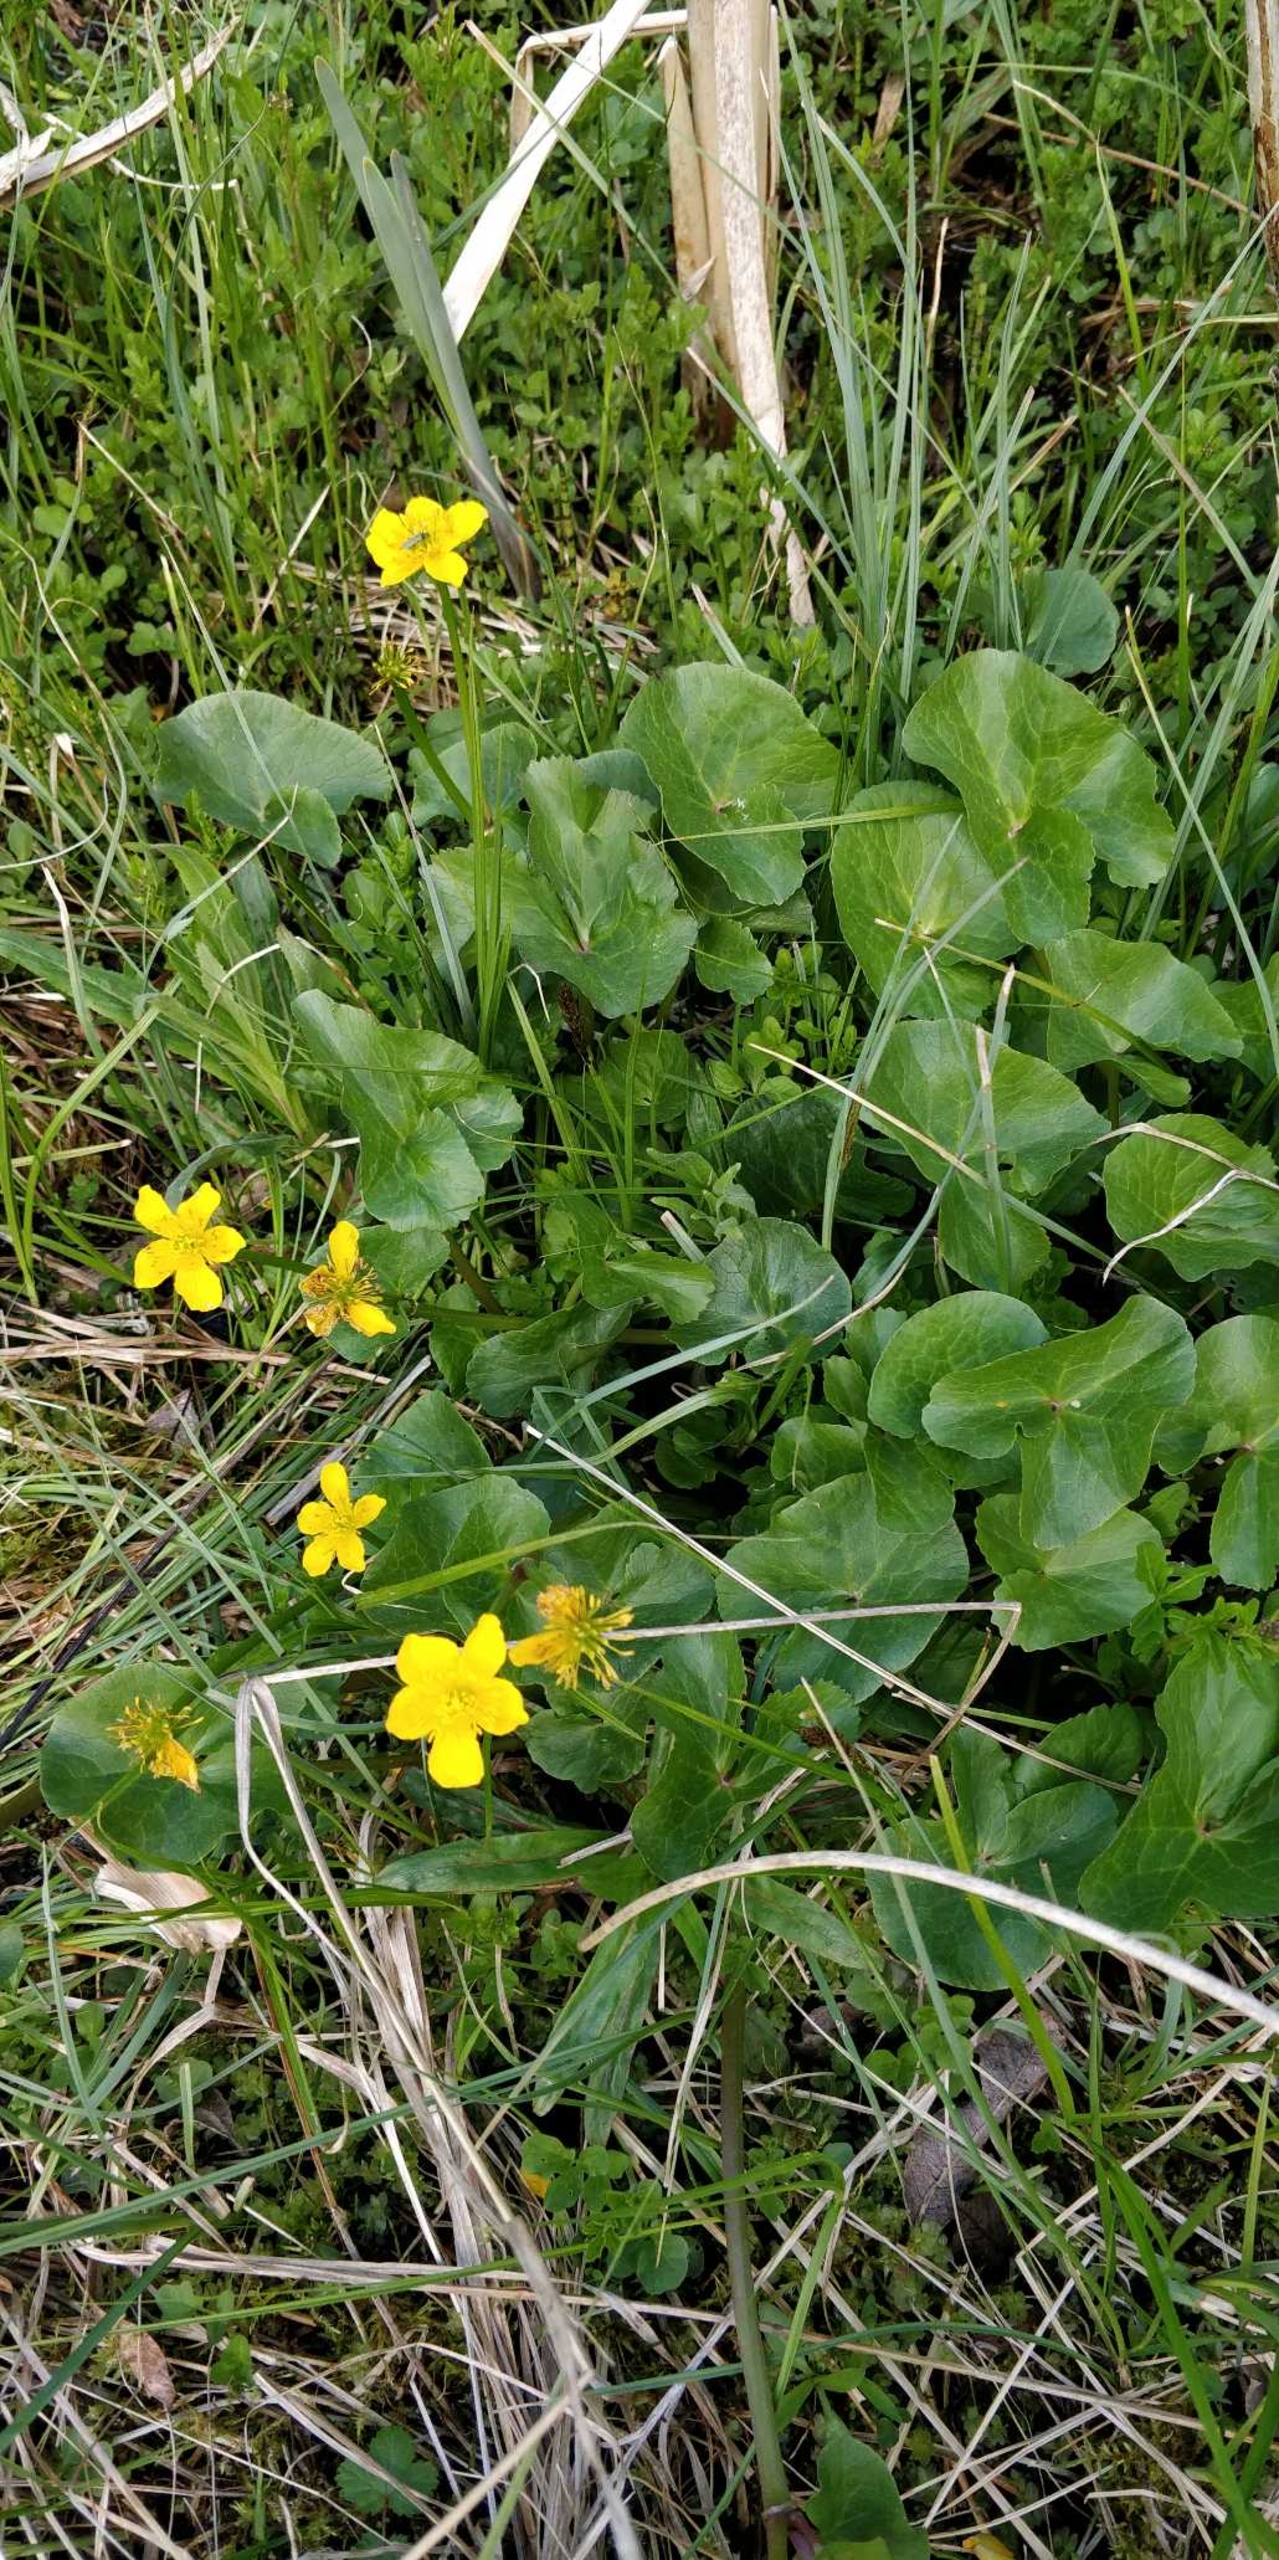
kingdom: Plantae
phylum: Tracheophyta
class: Magnoliopsida
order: Ranunculales
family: Ranunculaceae
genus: Caltha
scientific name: Caltha palustris
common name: Eng-kabbeleje
